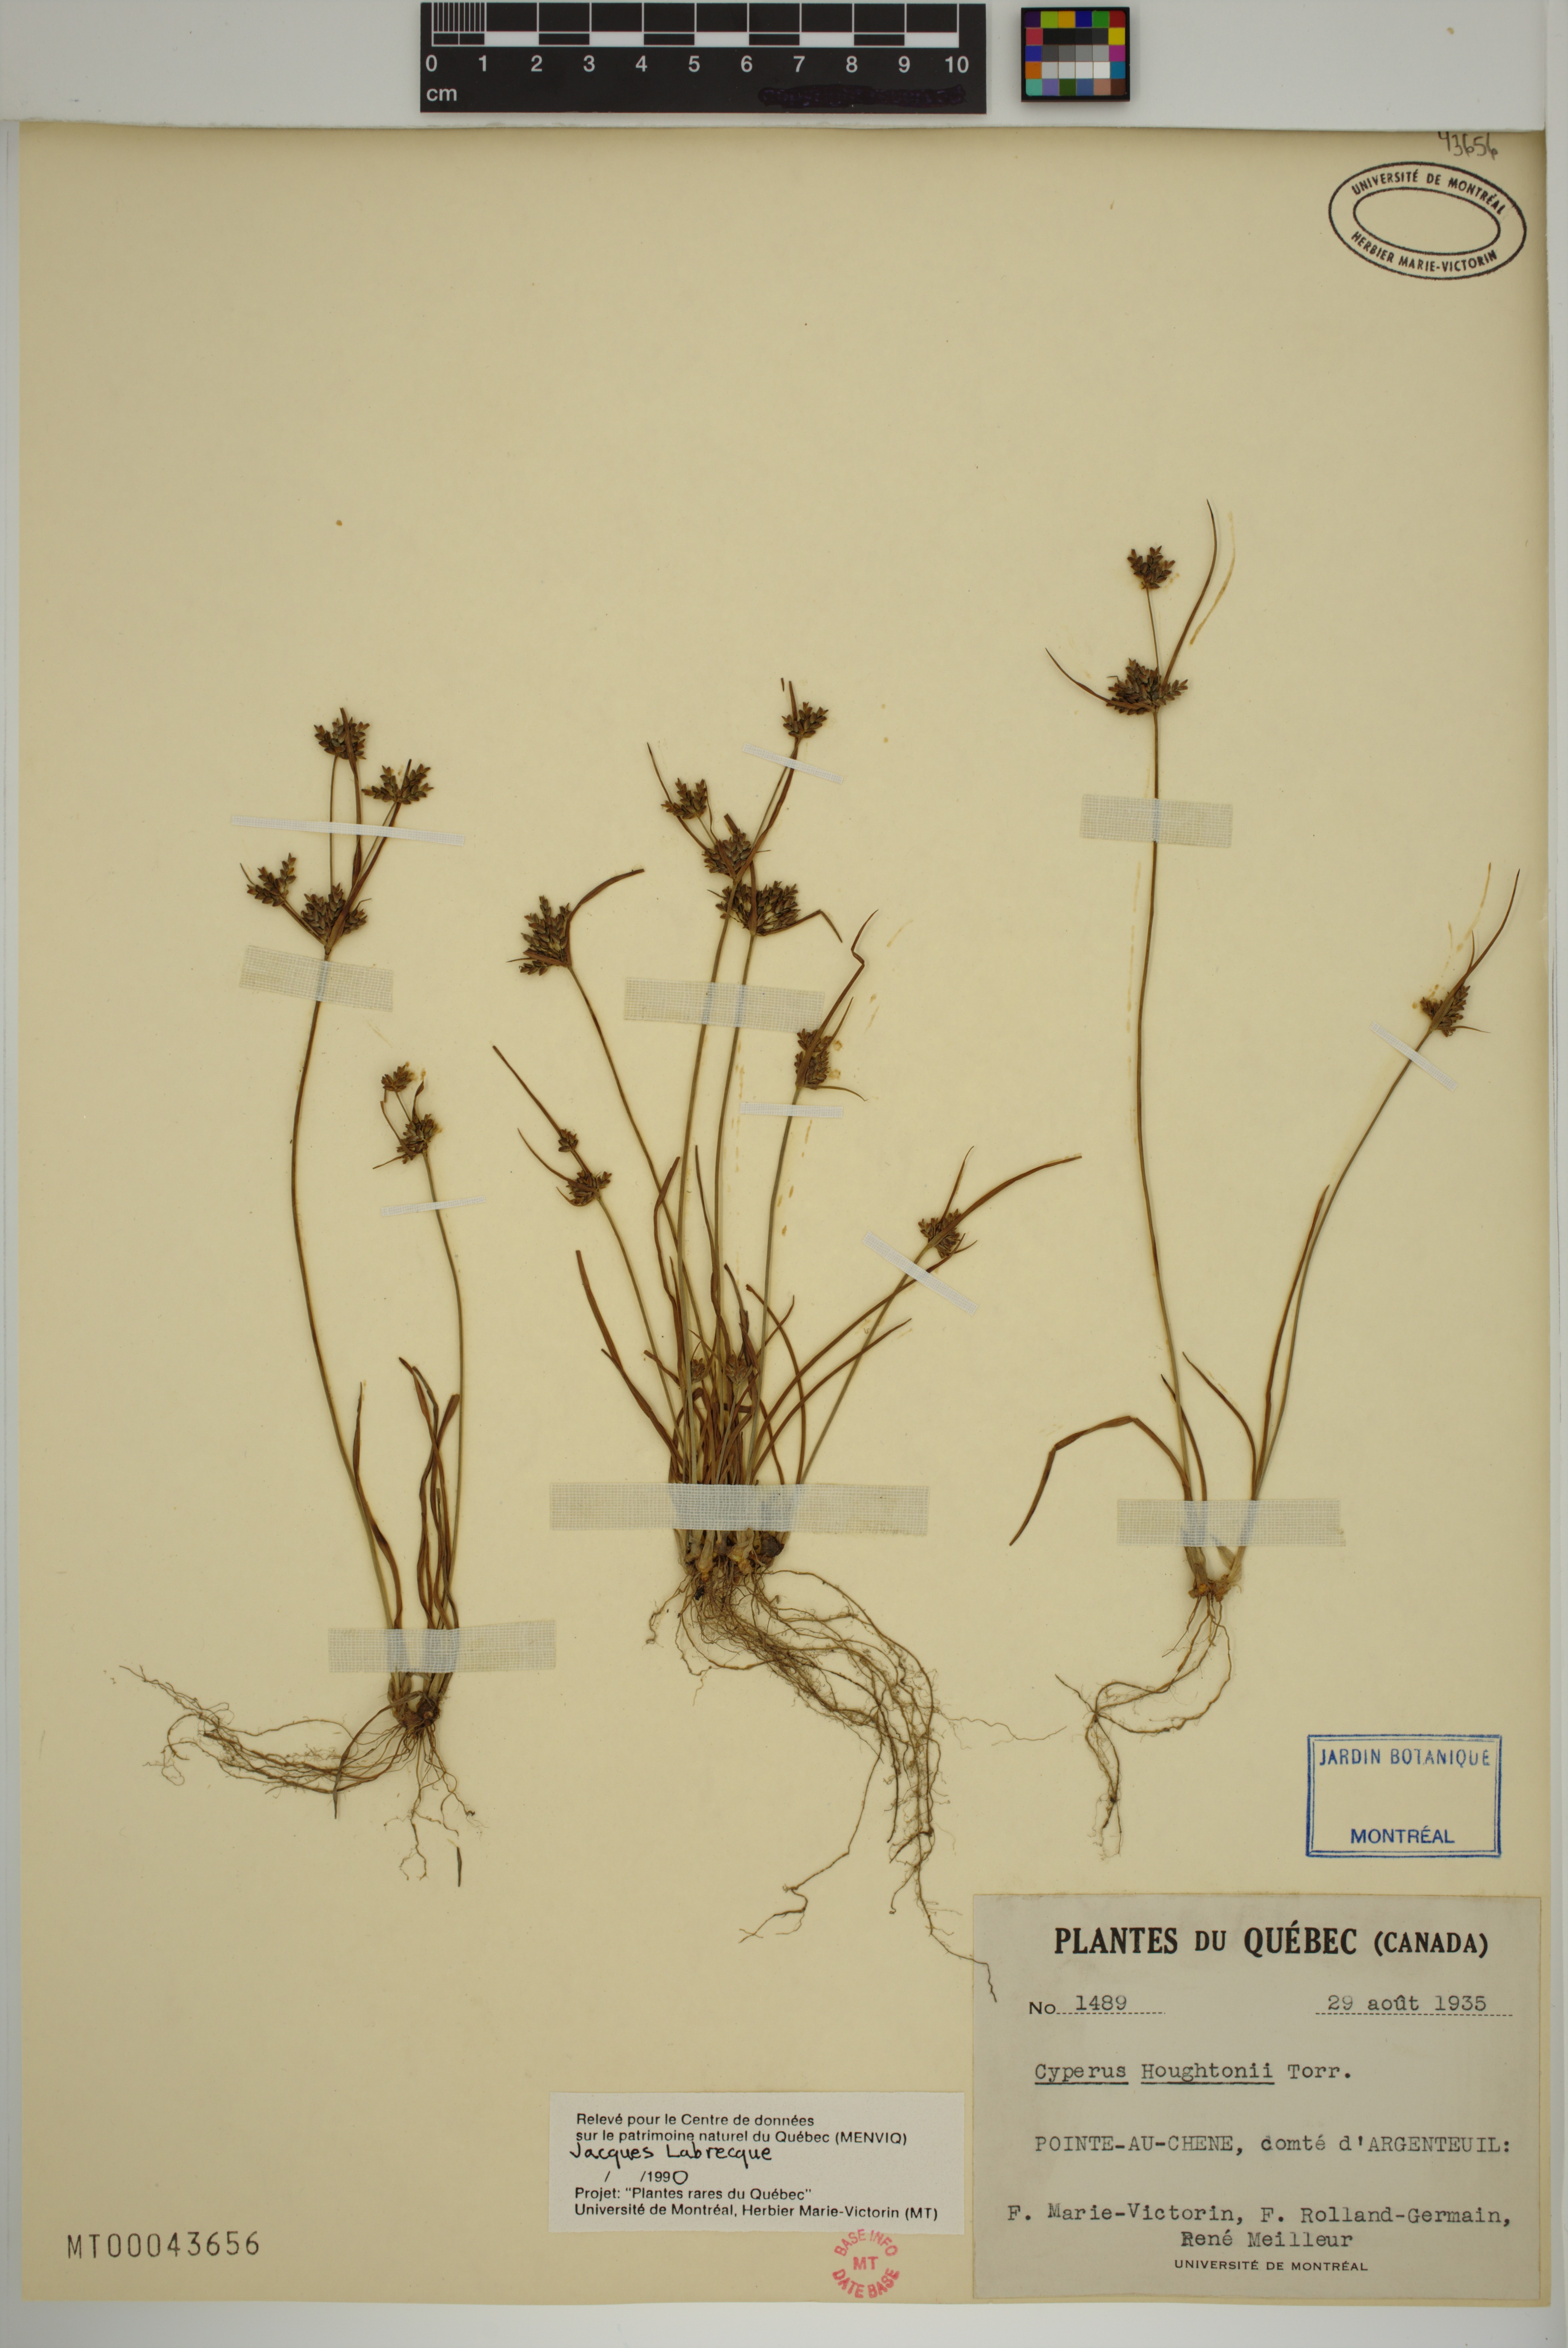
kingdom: Plantae
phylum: Tracheophyta
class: Liliopsida
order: Poales
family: Cyperaceae
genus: Cyperus
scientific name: Cyperus houghtonii
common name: Houghton's cyperus
